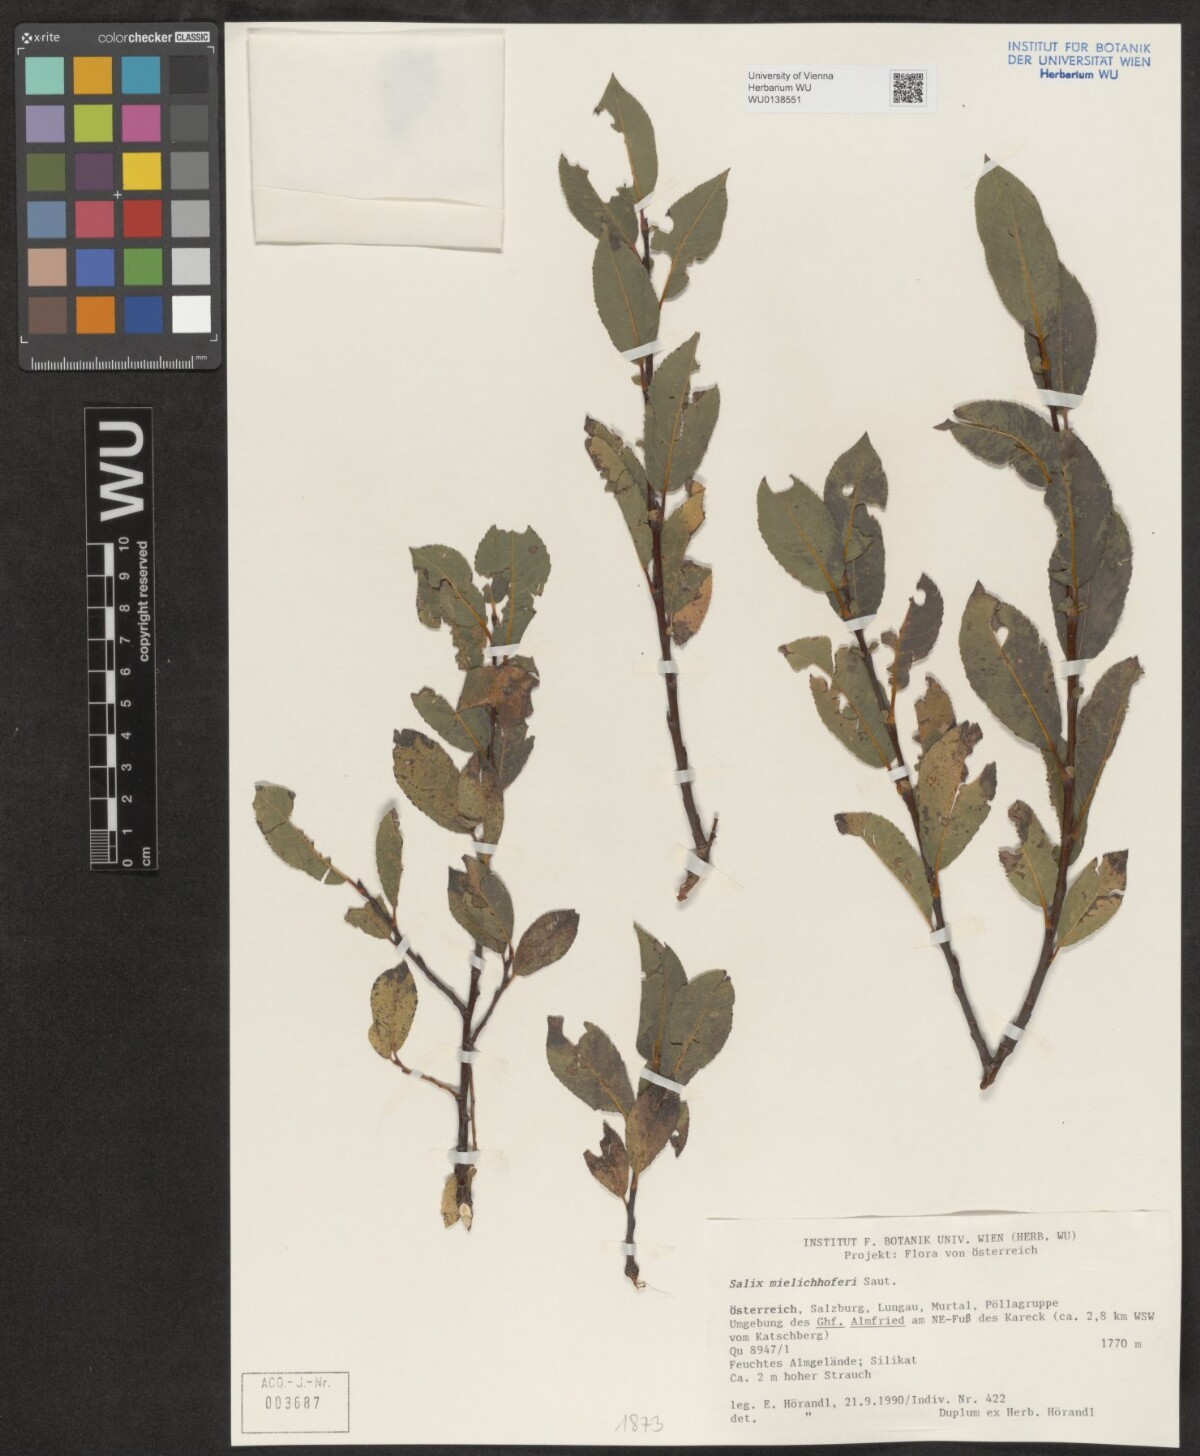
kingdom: Plantae
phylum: Tracheophyta
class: Magnoliopsida
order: Malpighiales
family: Salicaceae
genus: Salix
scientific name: Salix mielichhoferi
